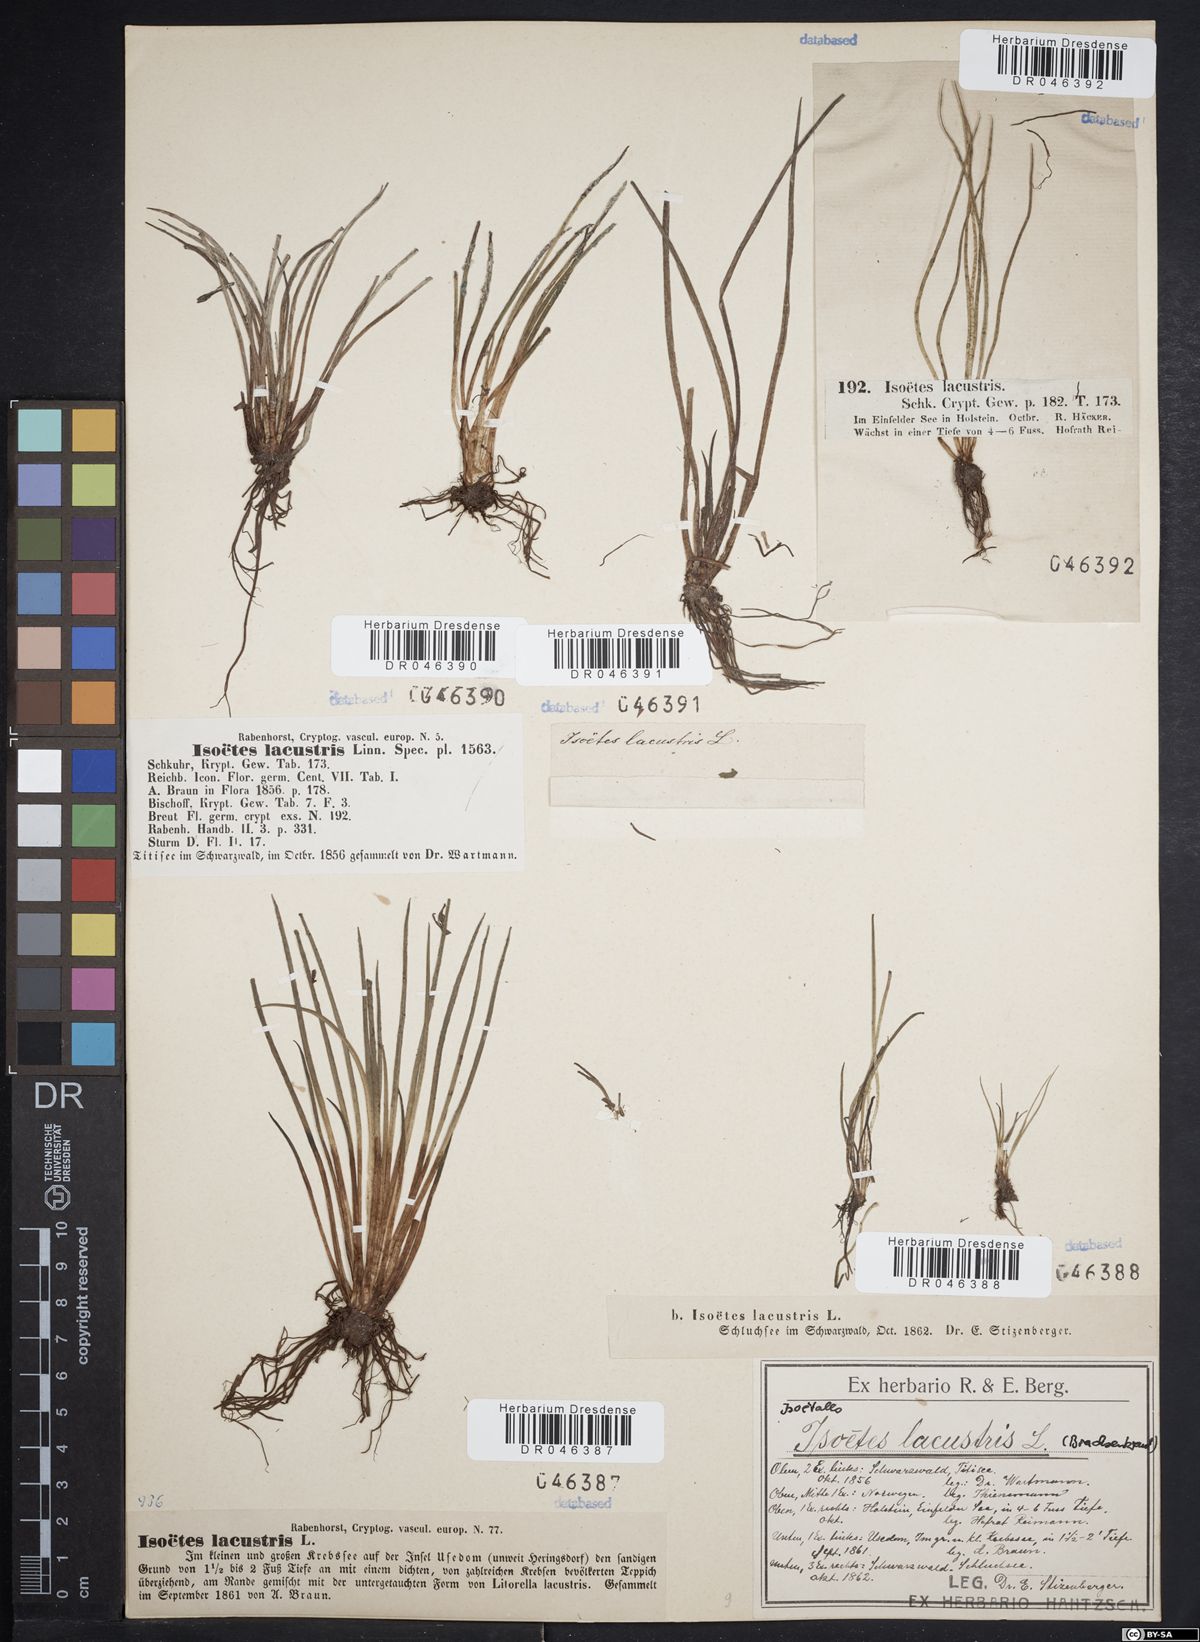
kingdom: Plantae
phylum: Tracheophyta
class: Lycopodiopsida
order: Isoetales
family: Isoetaceae
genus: Isoetes
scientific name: Isoetes lacustris
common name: Common quillwort
